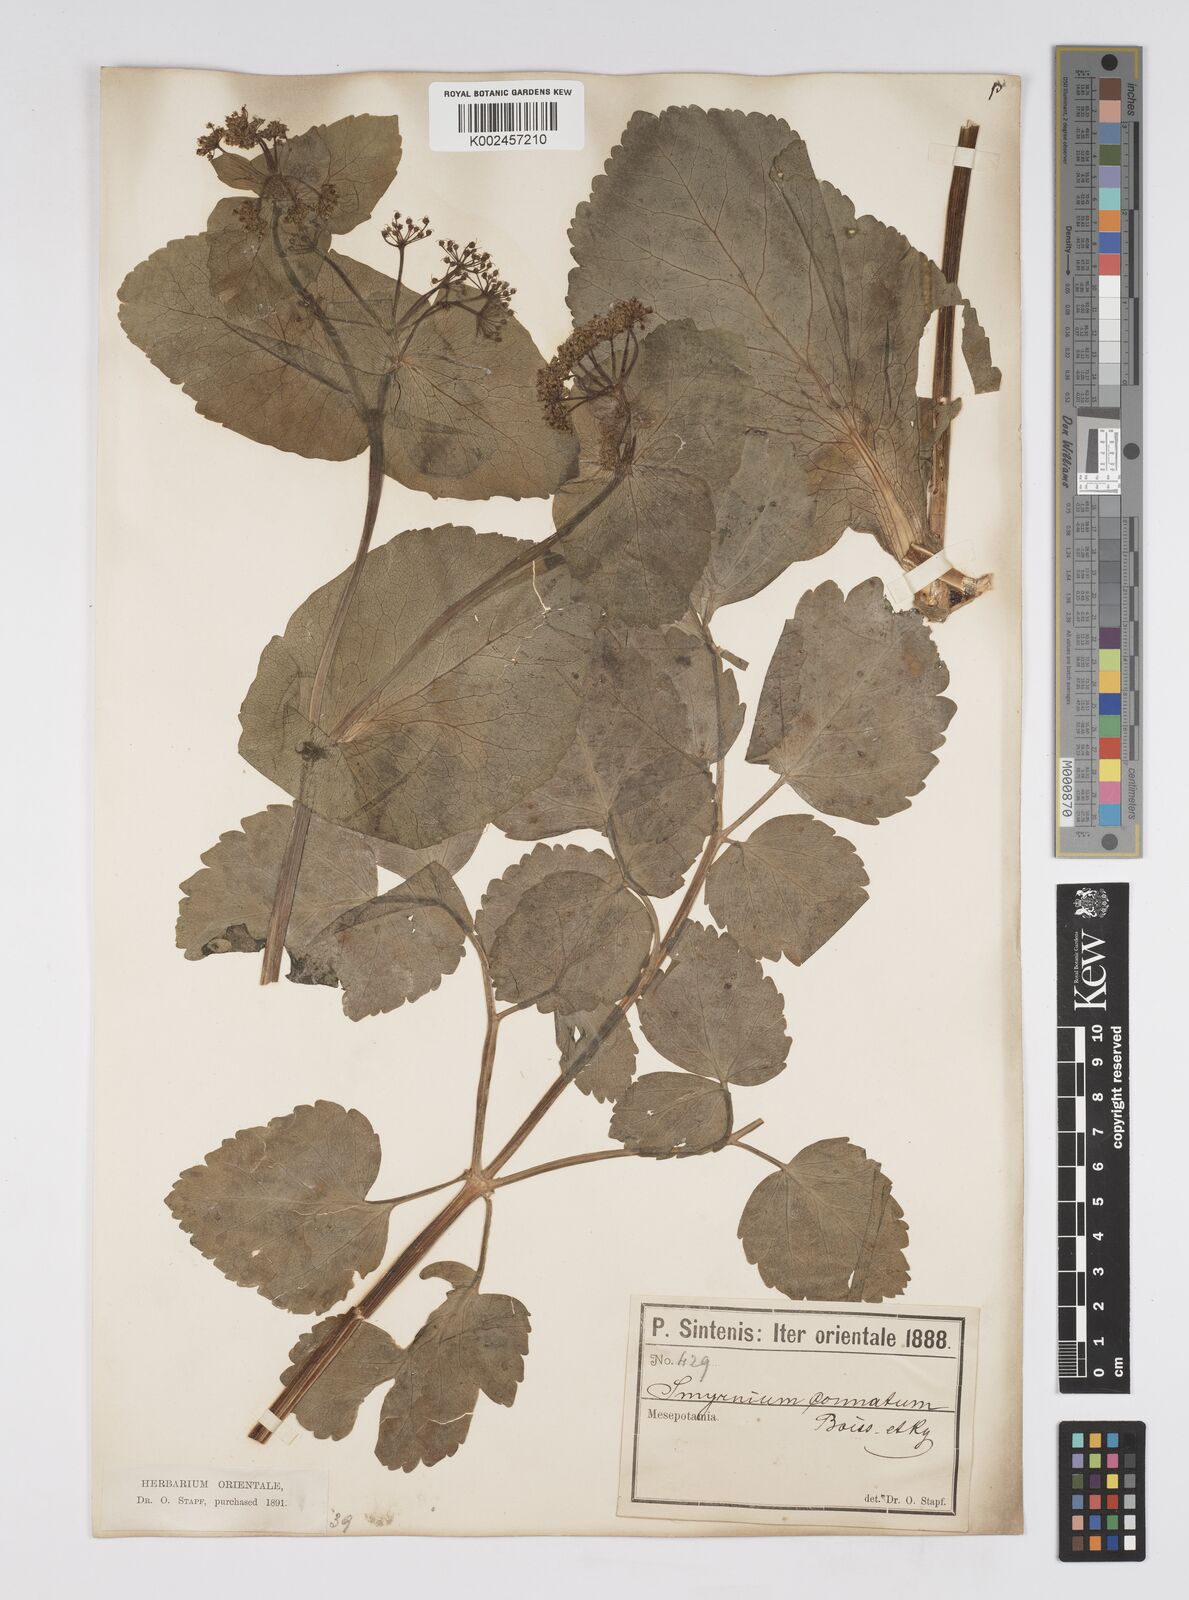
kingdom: Plantae
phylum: Tracheophyta
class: Magnoliopsida
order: Apiales
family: Apiaceae
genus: Smyrnium
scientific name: Smyrnium connatum
